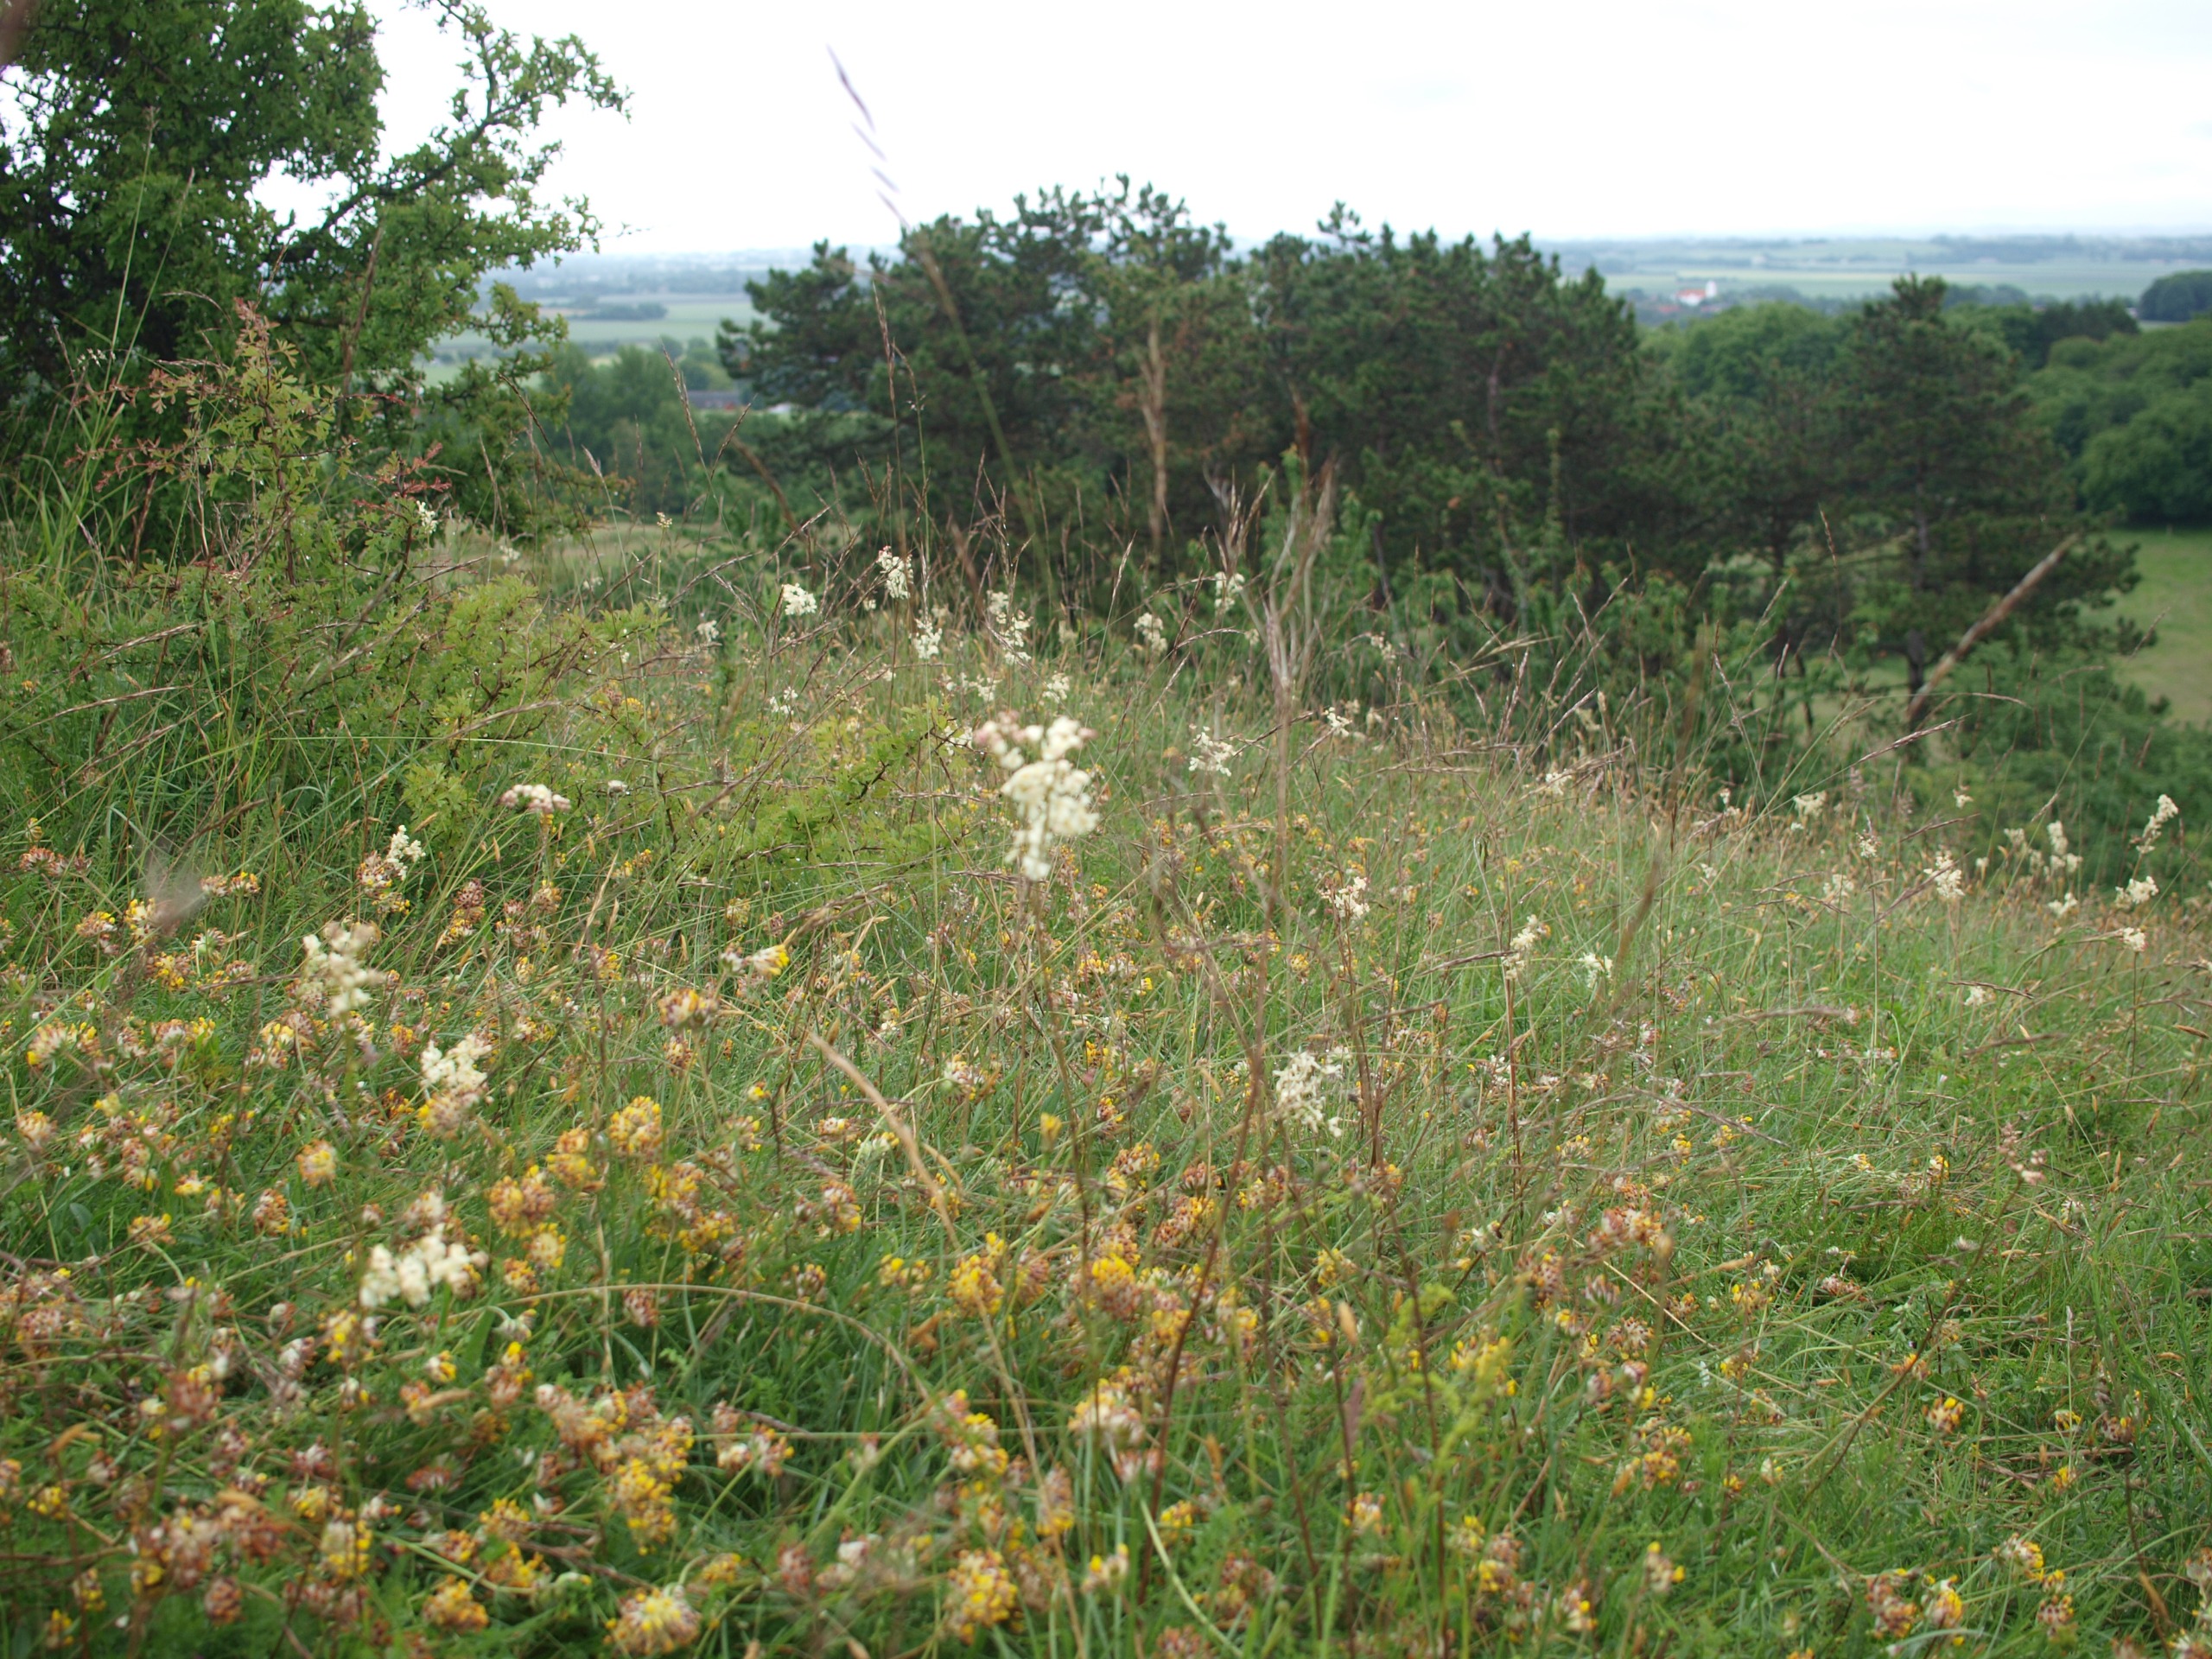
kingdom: Plantae
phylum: Tracheophyta
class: Magnoliopsida
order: Rosales
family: Rosaceae
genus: Filipendula
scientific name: Filipendula vulgaris
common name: Knoldet mjødurt
